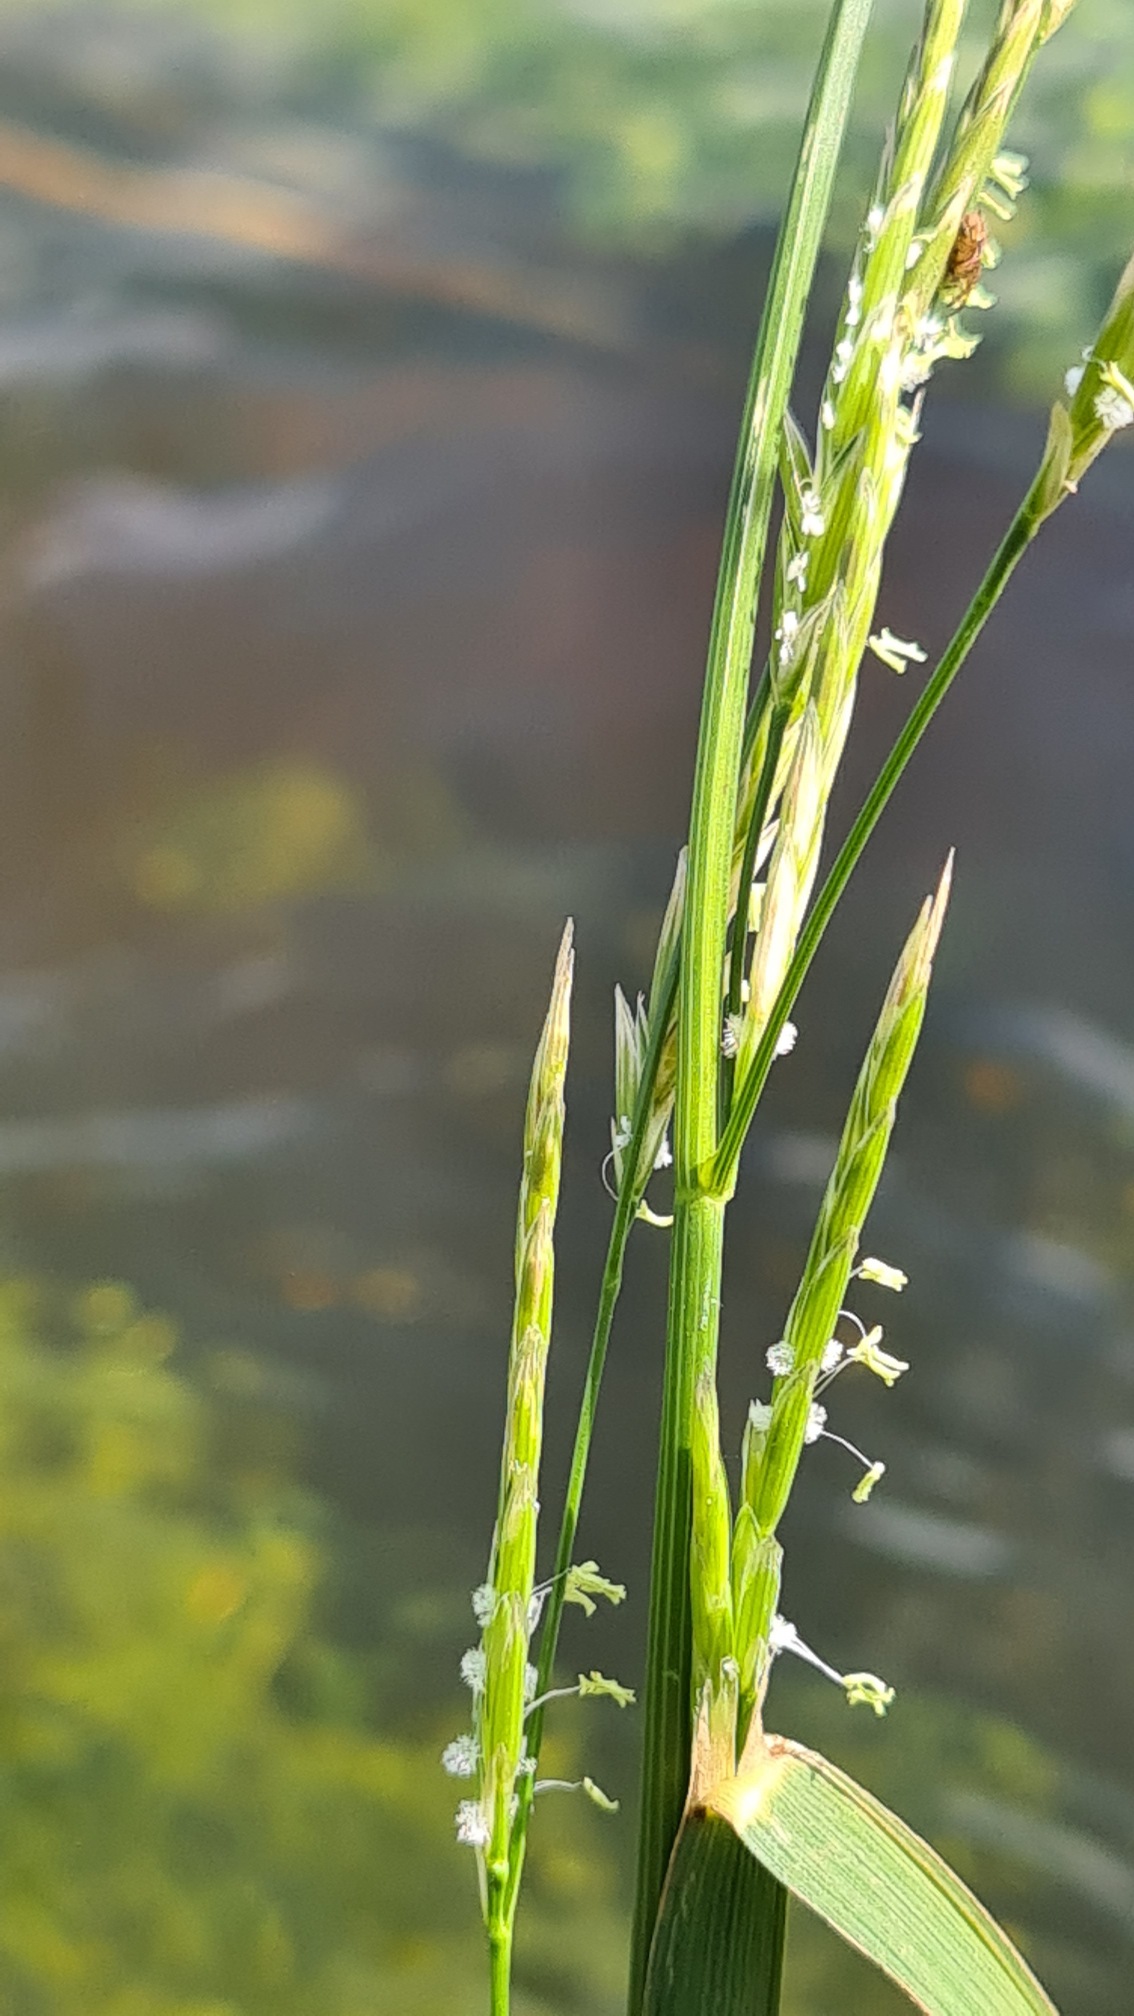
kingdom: Plantae
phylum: Tracheophyta
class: Liliopsida
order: Poales
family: Poaceae
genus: Glyceria
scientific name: Glyceria fluitans
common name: Manna-sødgræs
